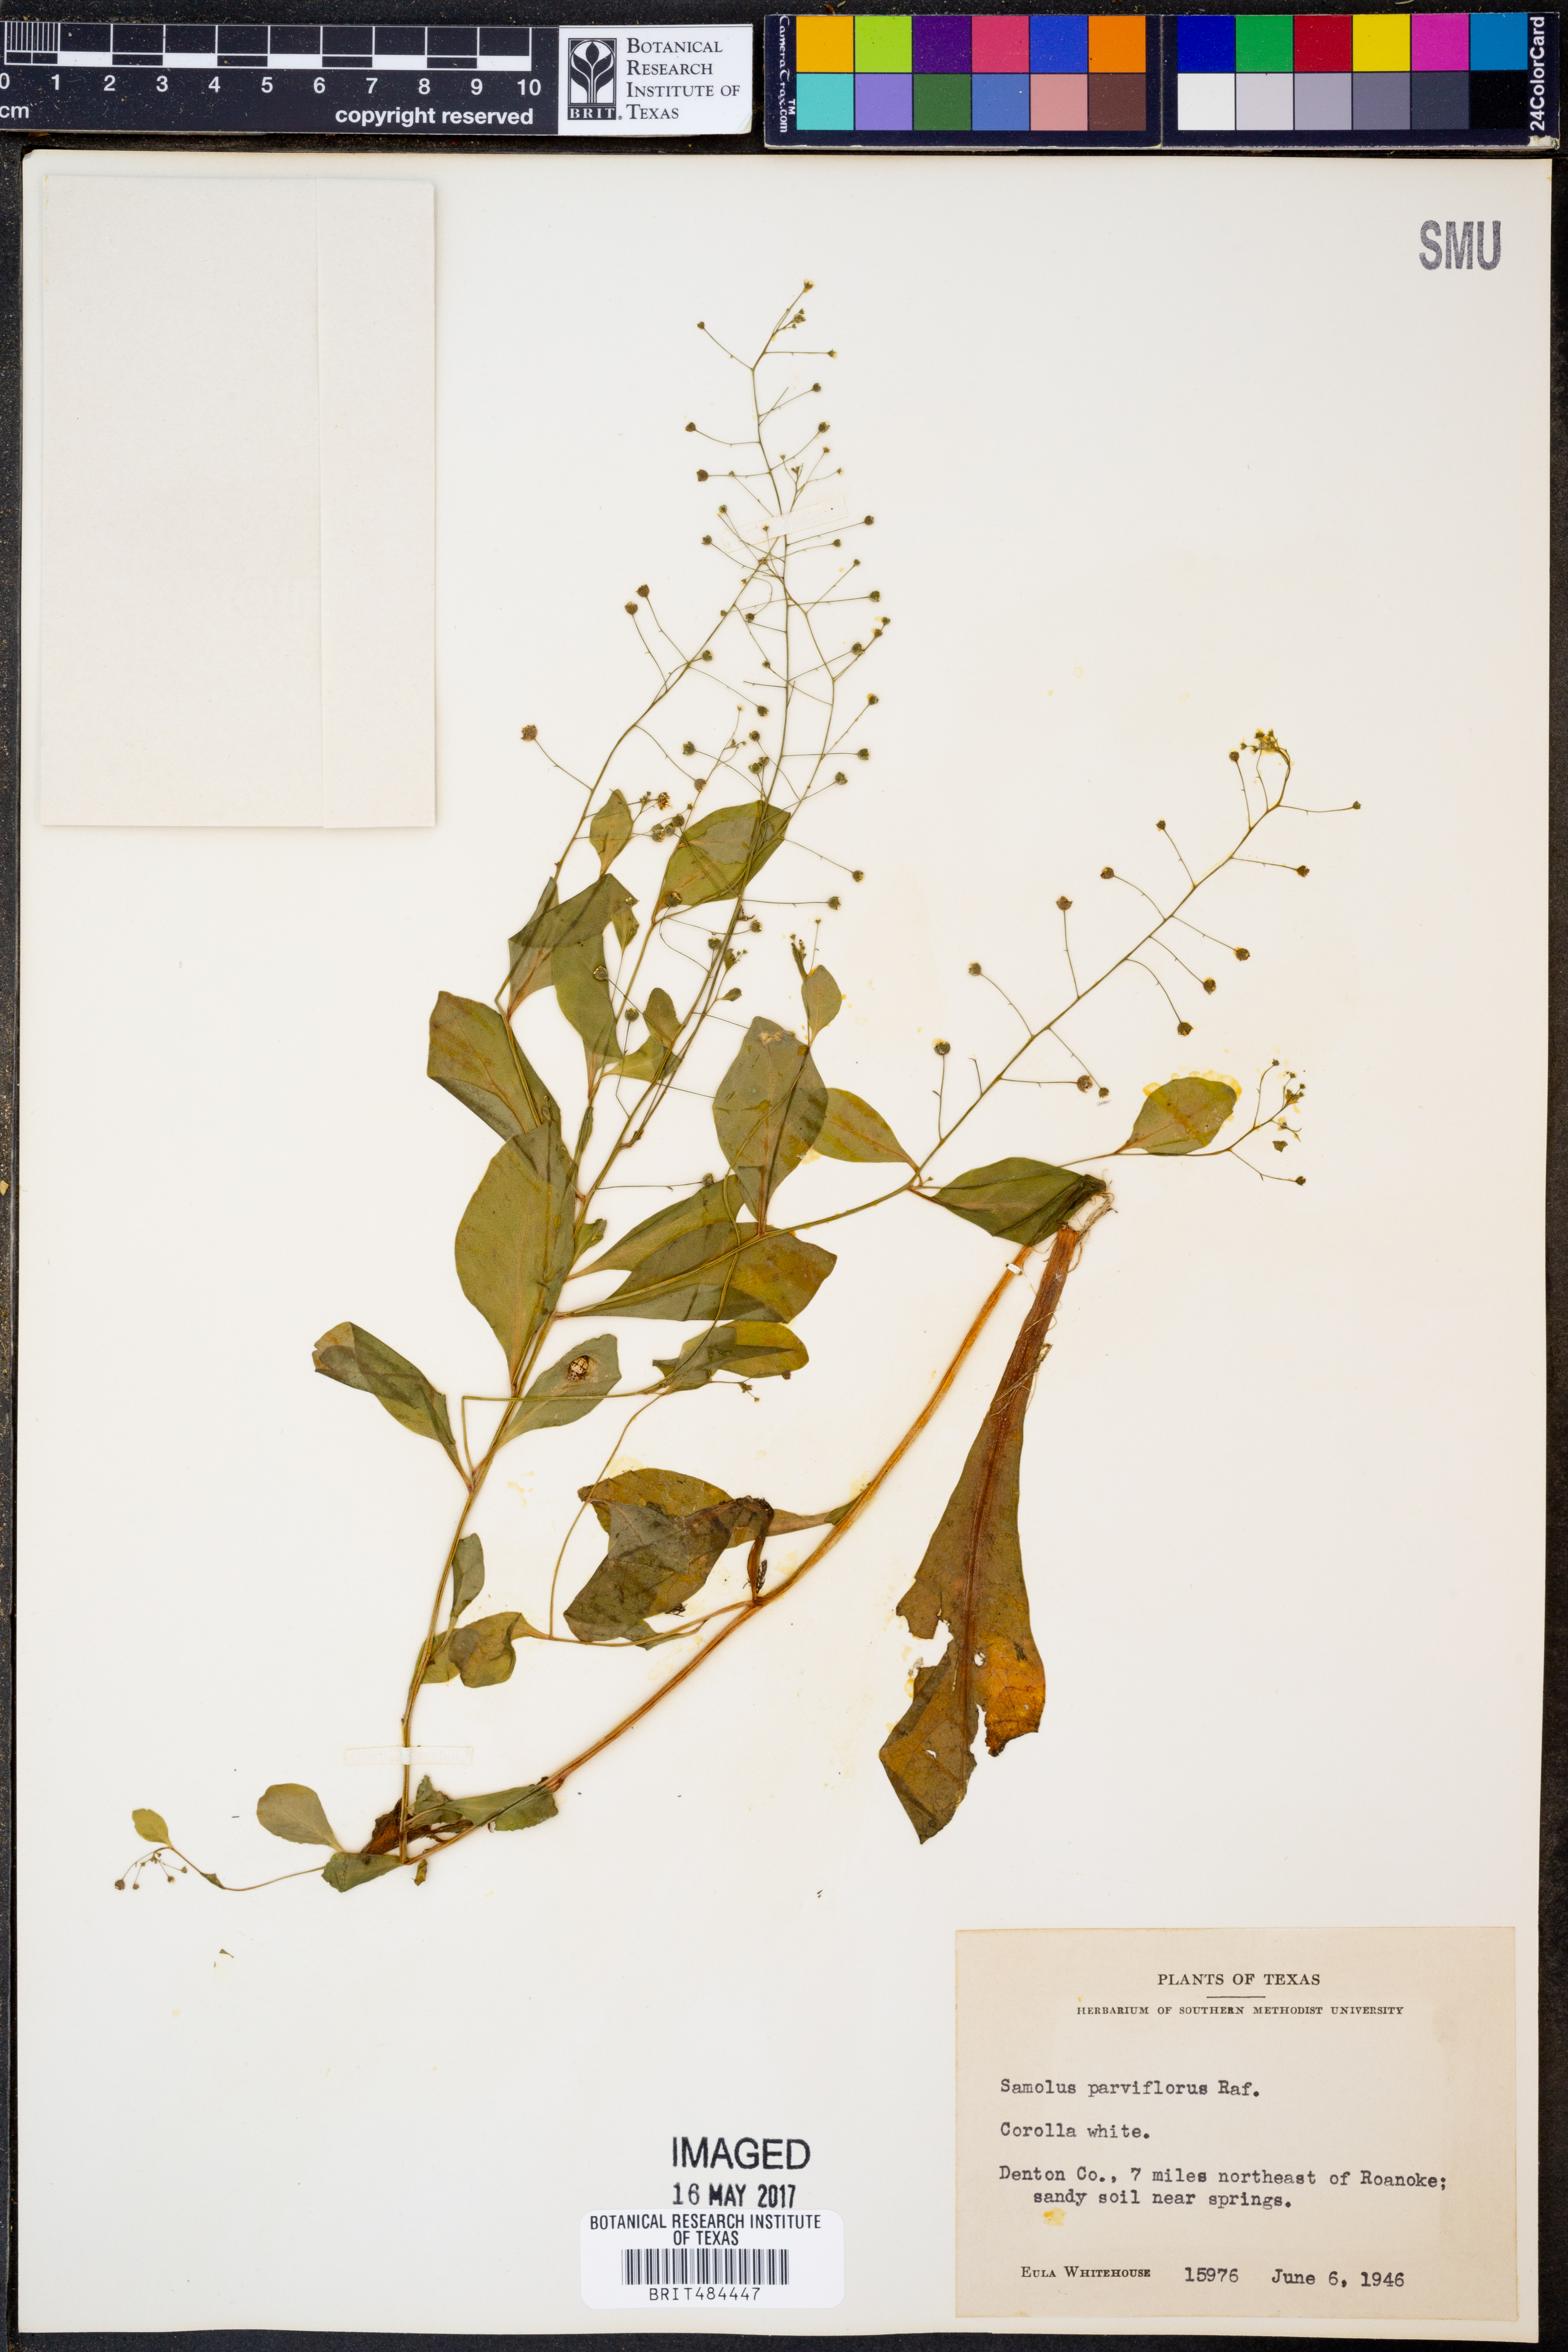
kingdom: Plantae
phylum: Tracheophyta
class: Magnoliopsida
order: Ericales
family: Primulaceae
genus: Samolus
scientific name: Samolus parviflorus
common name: False water pimpernel
